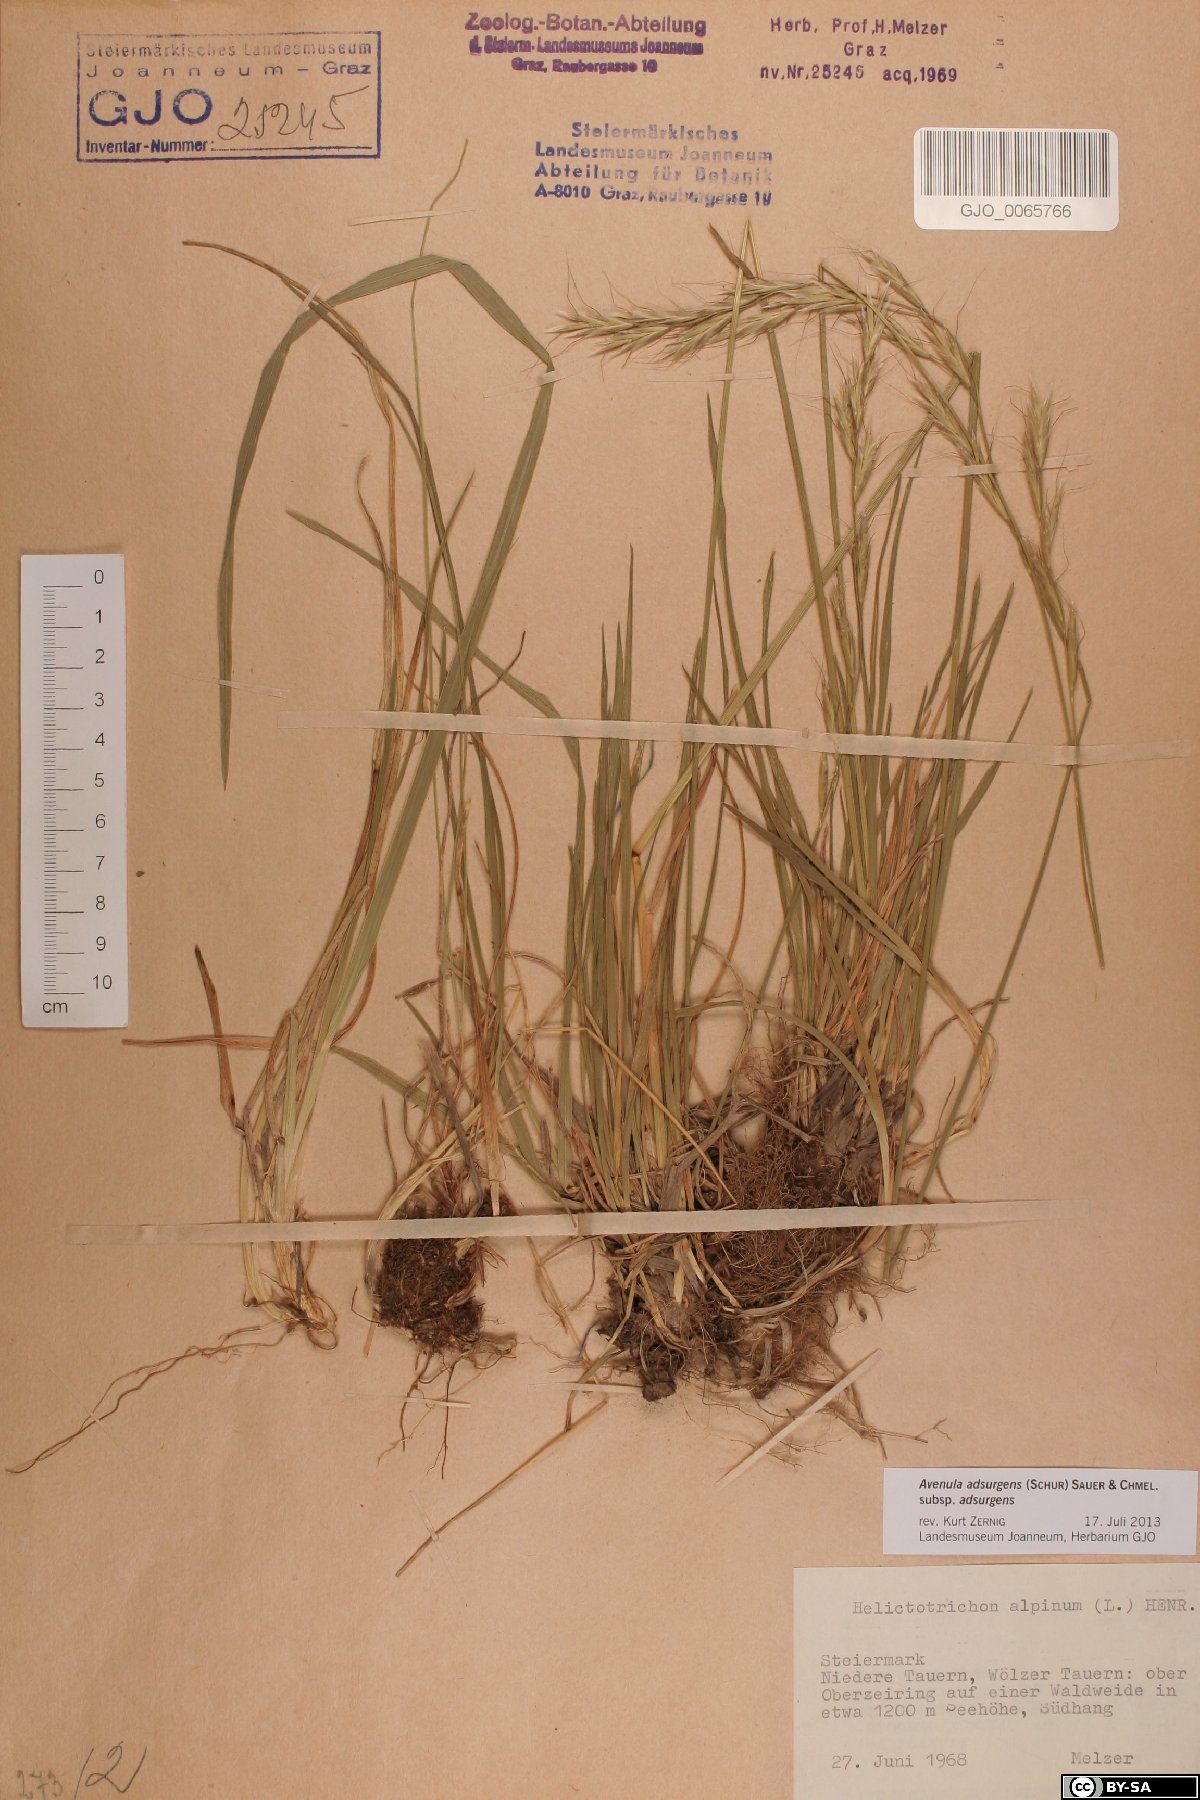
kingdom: Plantae
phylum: Tracheophyta
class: Liliopsida
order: Poales
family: Poaceae
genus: Helictochloa
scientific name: Helictochloa praeusta
